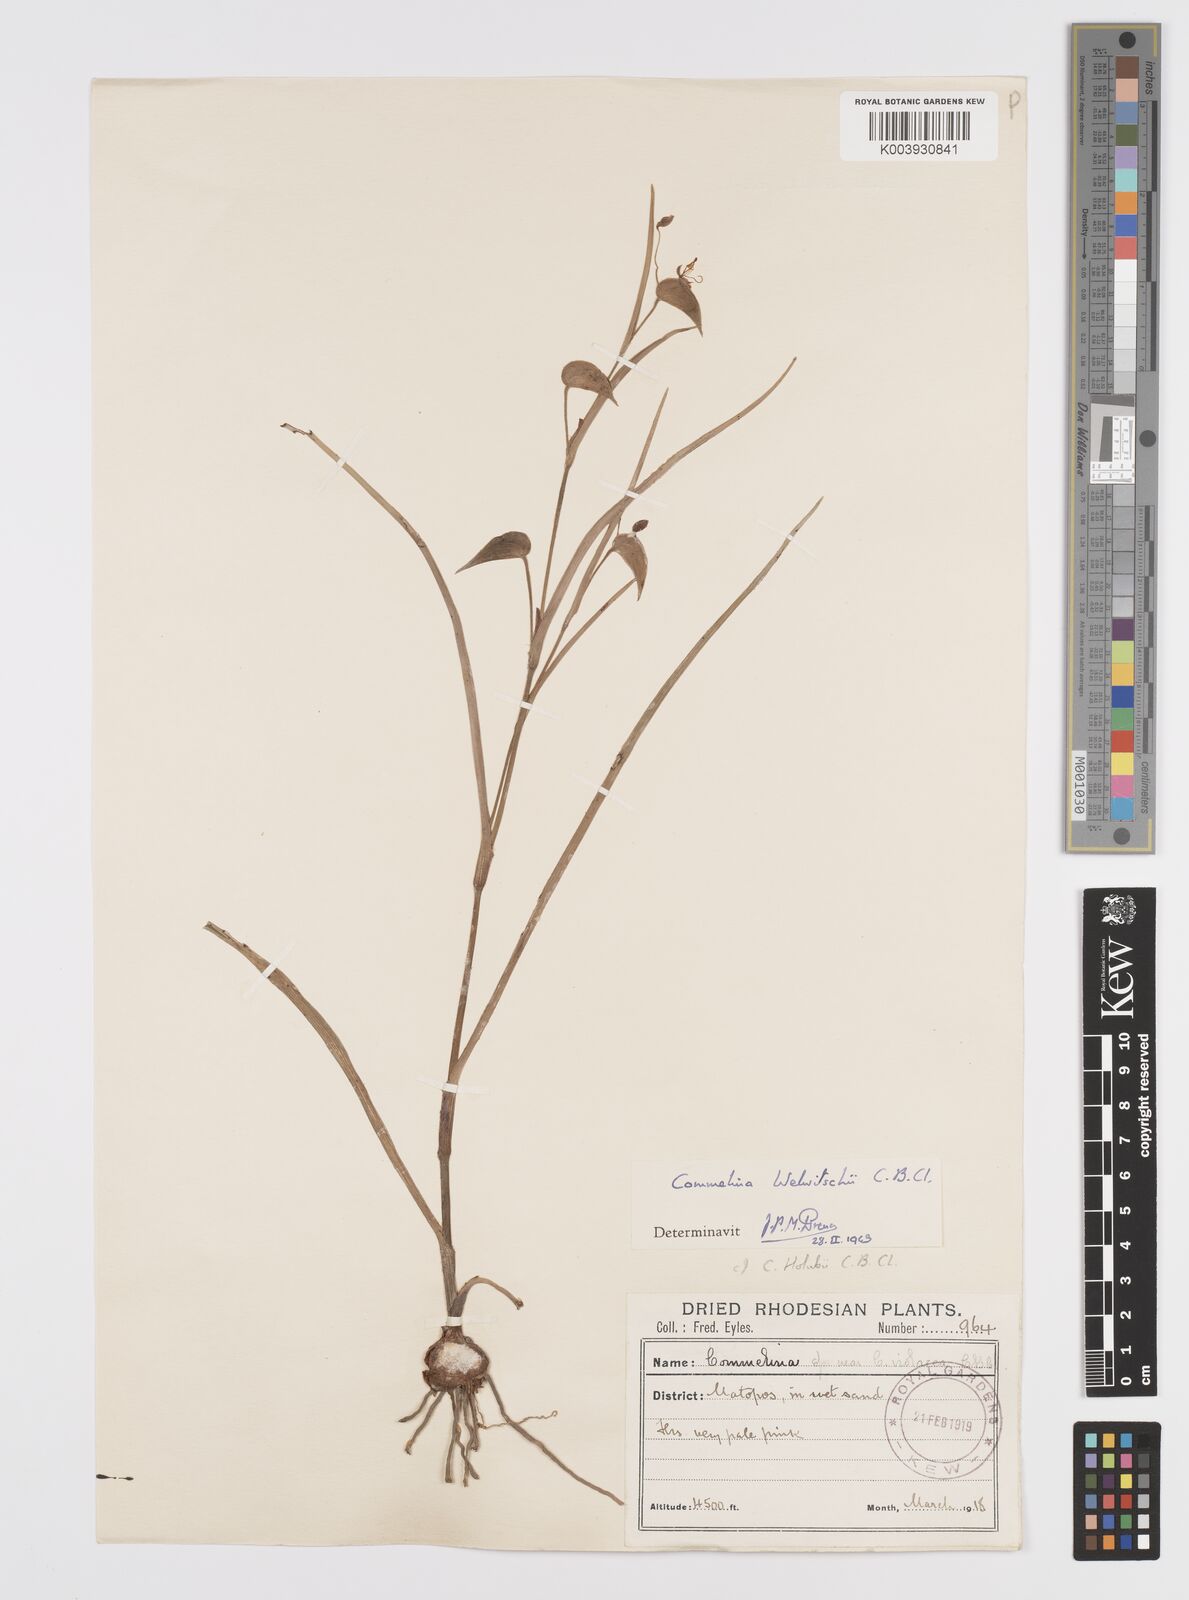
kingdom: Plantae
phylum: Tracheophyta
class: Liliopsida
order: Commelinales
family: Commelinaceae
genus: Commelina
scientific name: Commelina welwitschii
